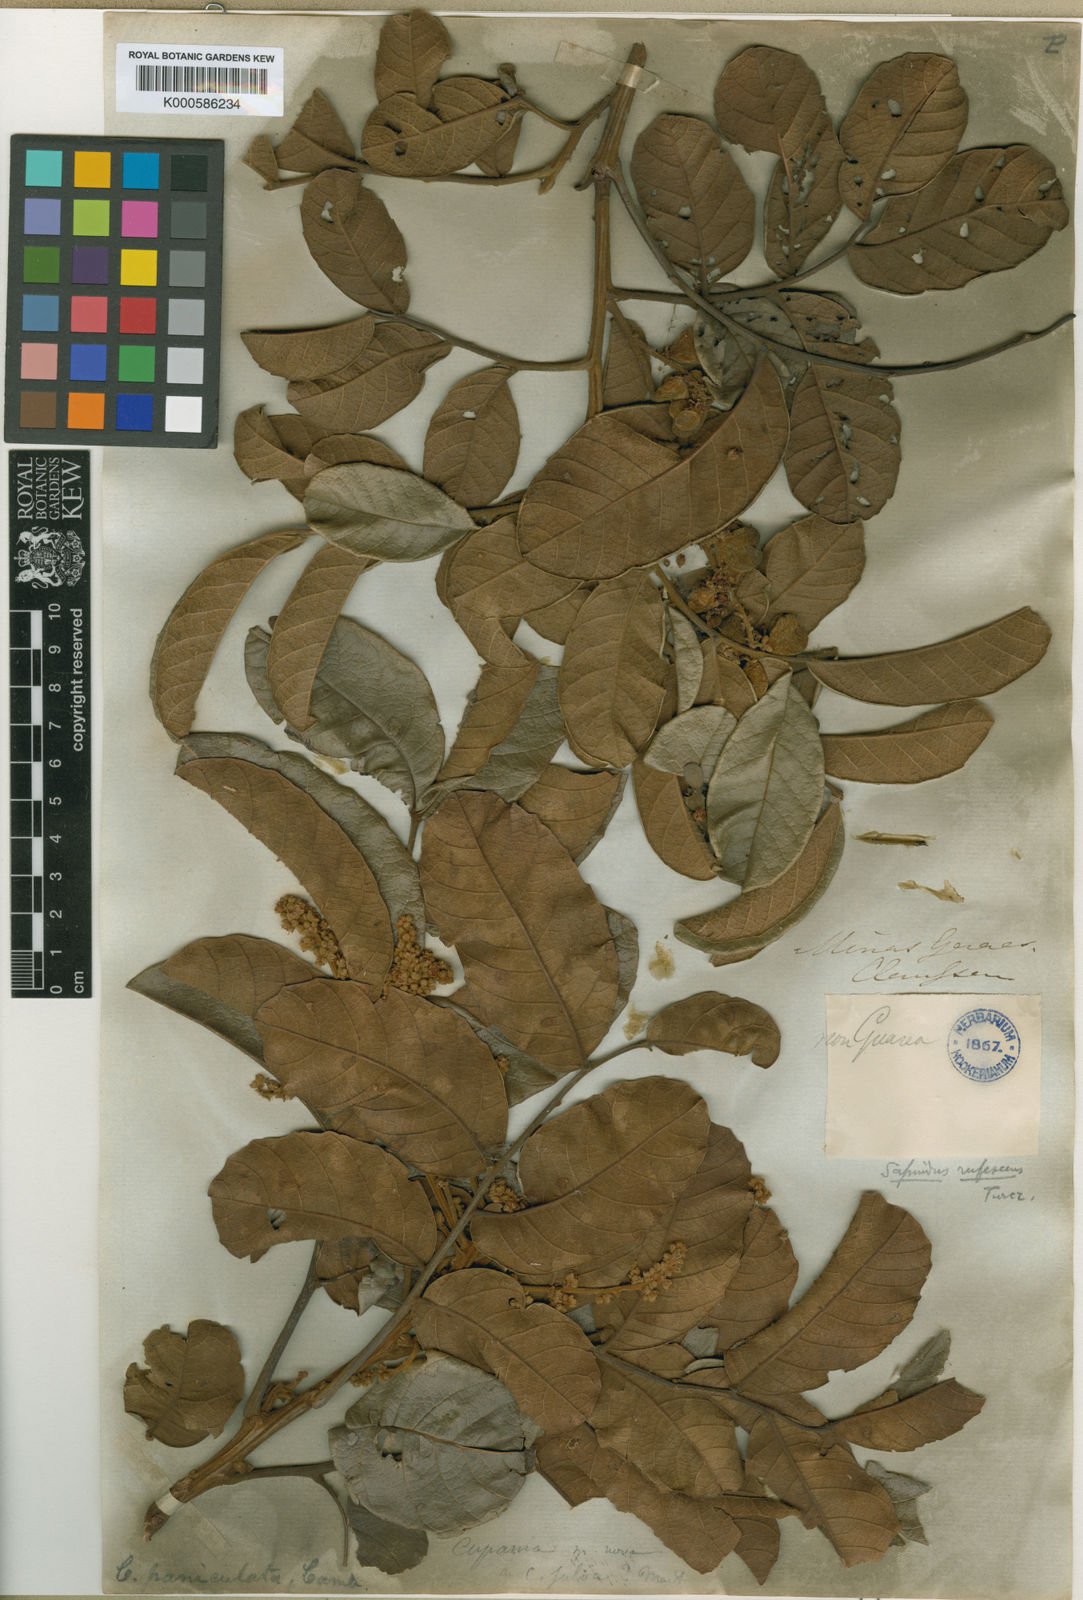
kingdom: Plantae
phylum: Tracheophyta
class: Magnoliopsida
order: Sapindales
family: Sapindaceae
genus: Cupania
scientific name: Cupania paniculata
